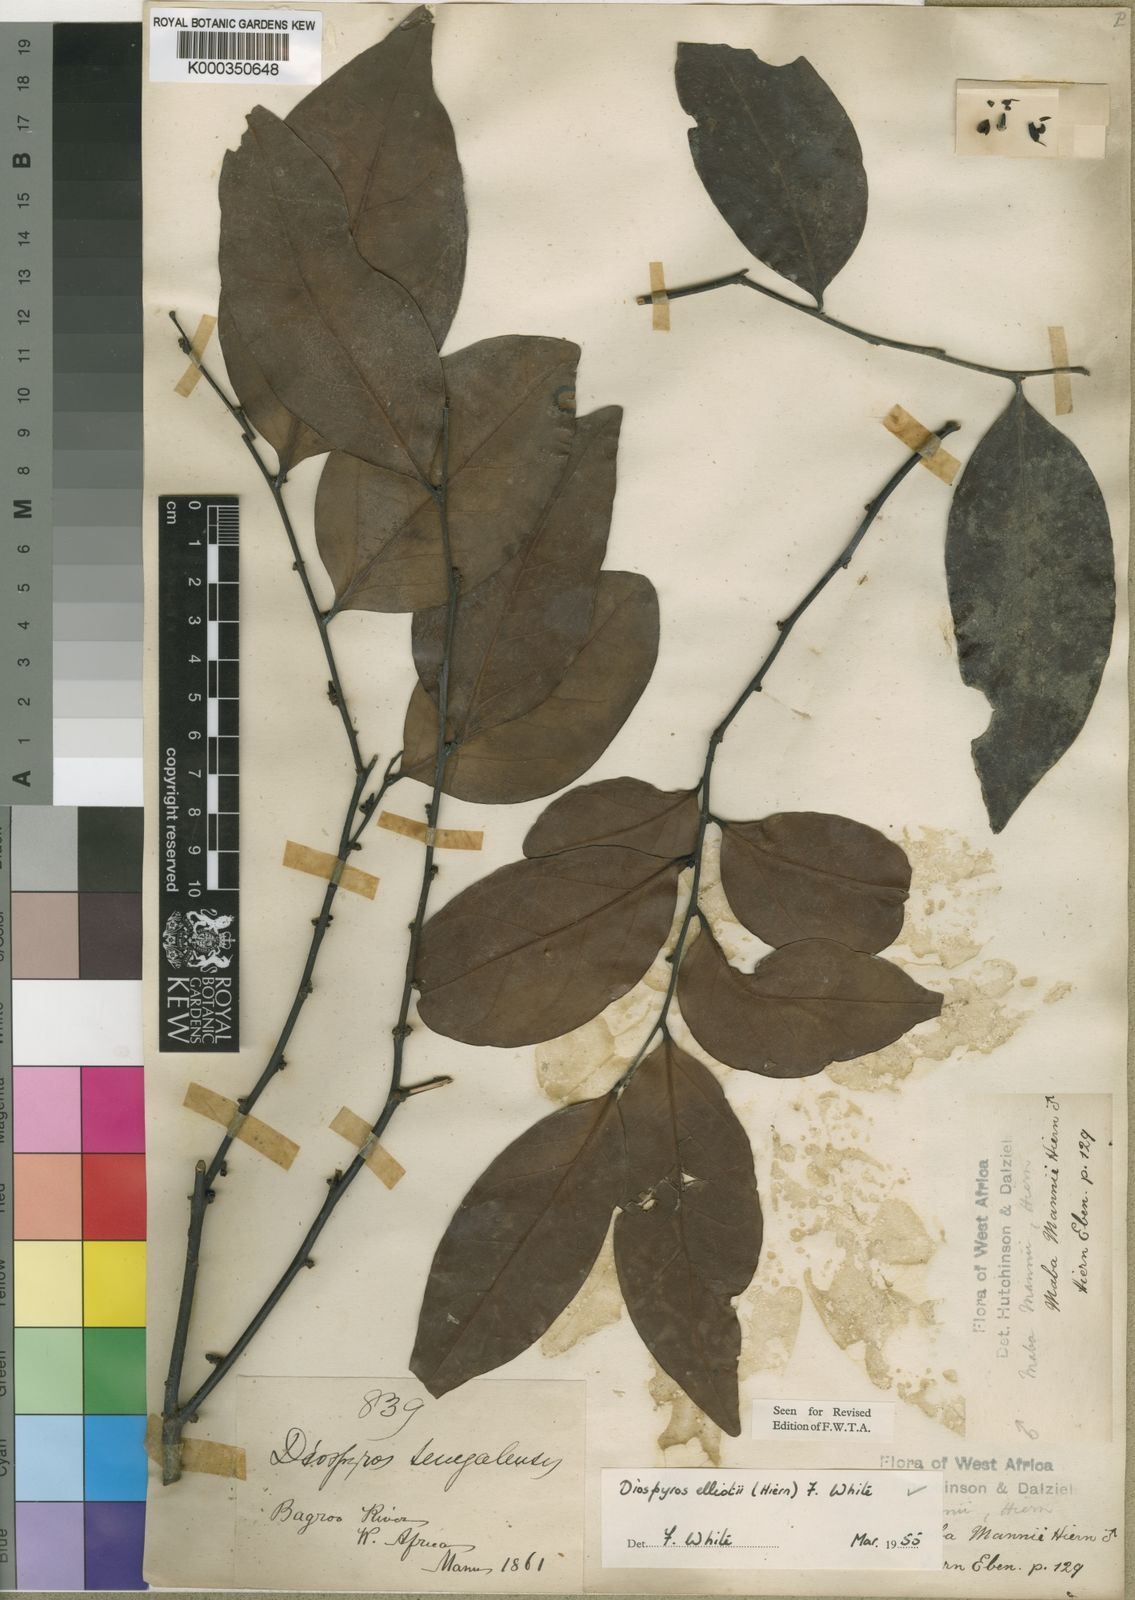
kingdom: Plantae
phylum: Tracheophyta
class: Magnoliopsida
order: Ericales
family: Ebenaceae
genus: Diospyros
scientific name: Diospyros elliotii
